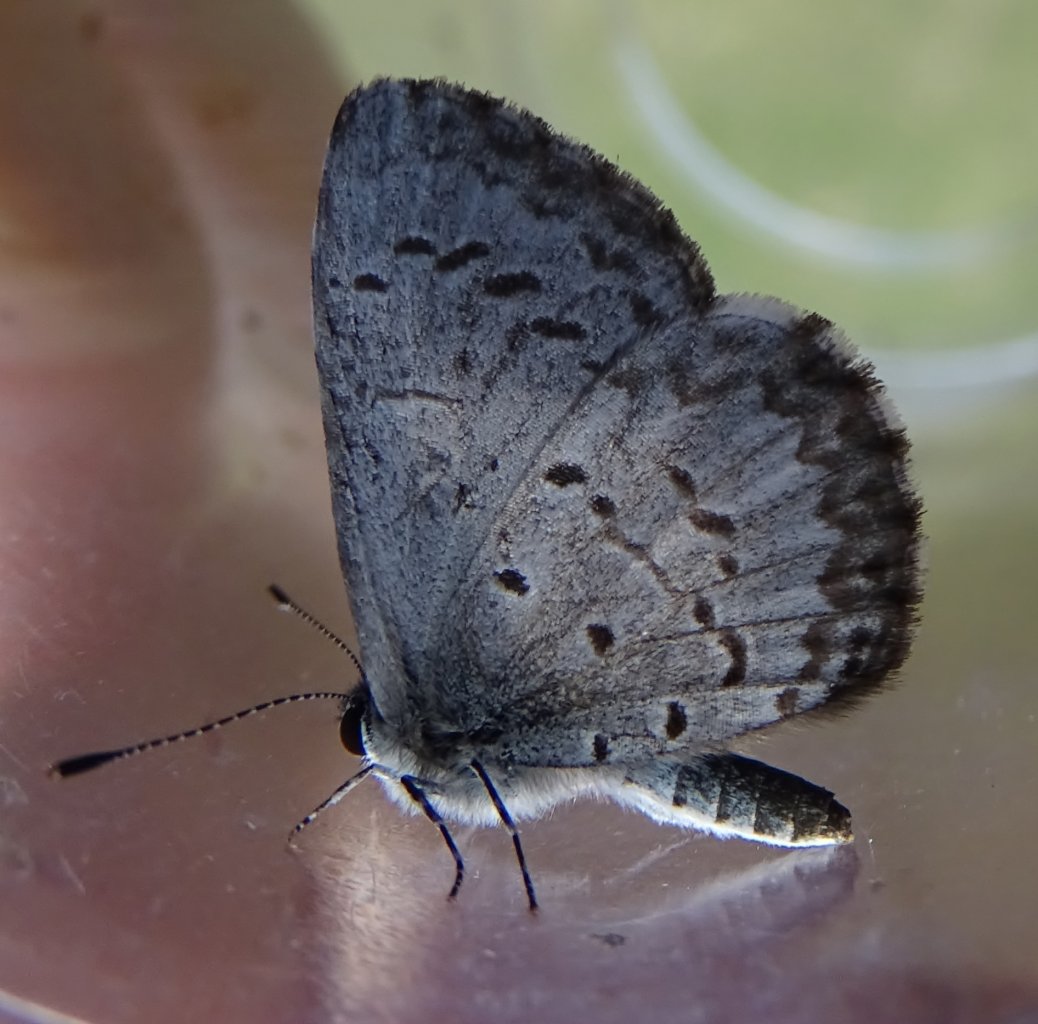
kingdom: Animalia
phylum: Arthropoda
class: Insecta
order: Lepidoptera
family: Lycaenidae
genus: Celastrina
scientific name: Celastrina lucia
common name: Northern Spring Azure
